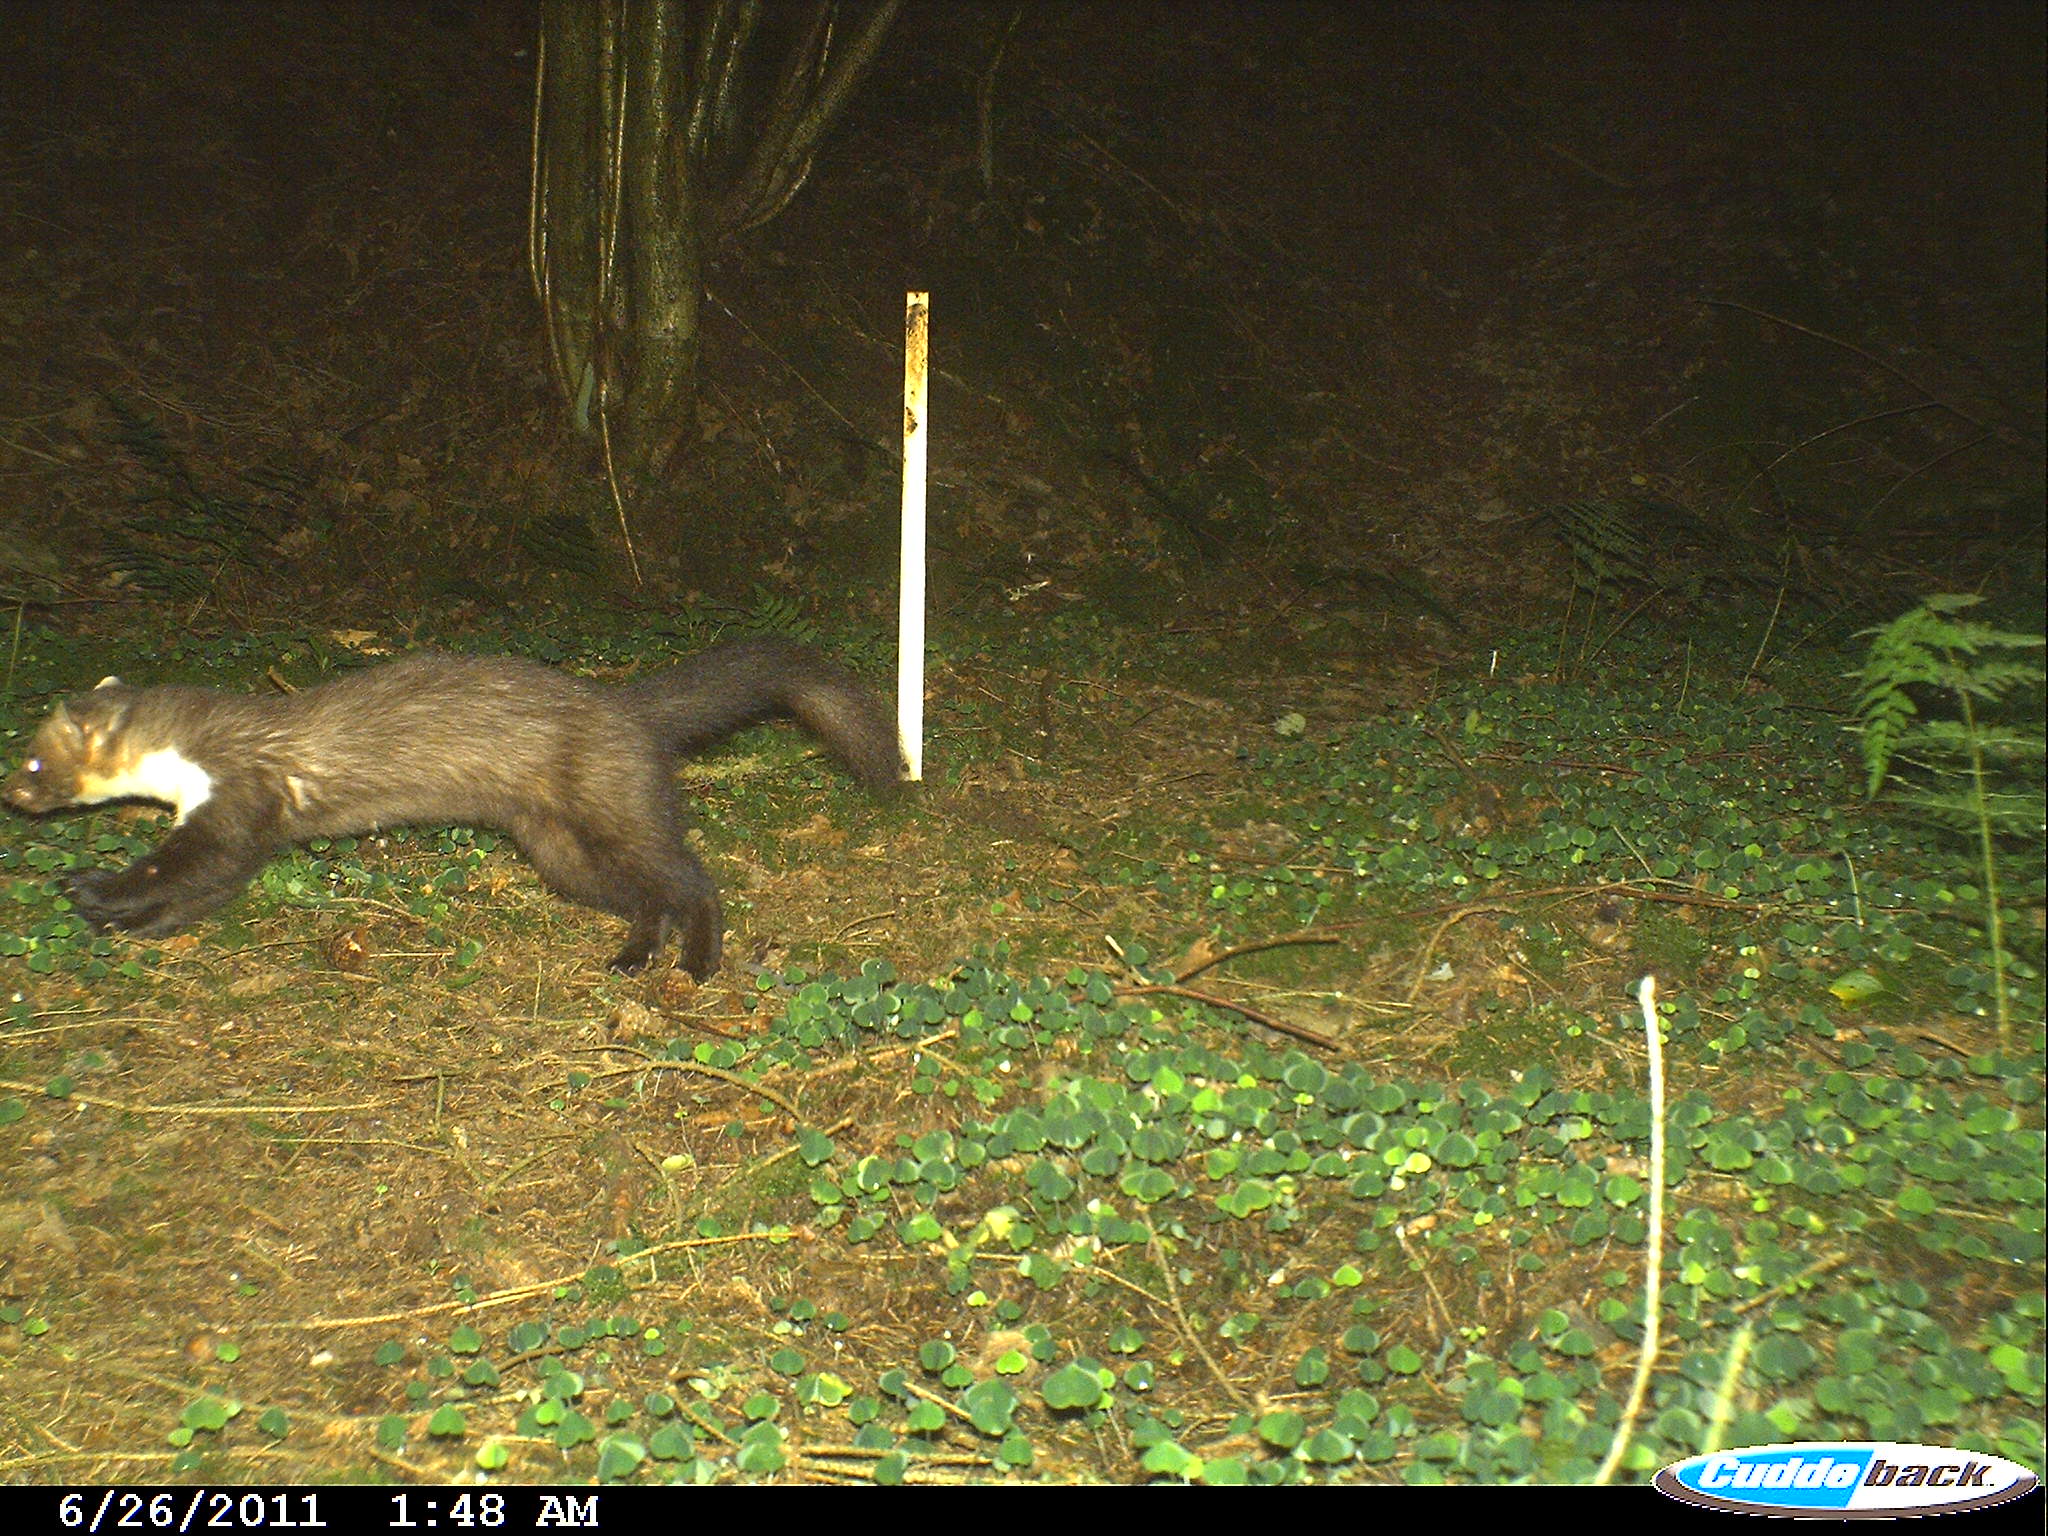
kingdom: Animalia
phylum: Chordata
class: Mammalia
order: Carnivora
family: Mustelidae
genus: Martes
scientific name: Martes foina
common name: Beech marten
